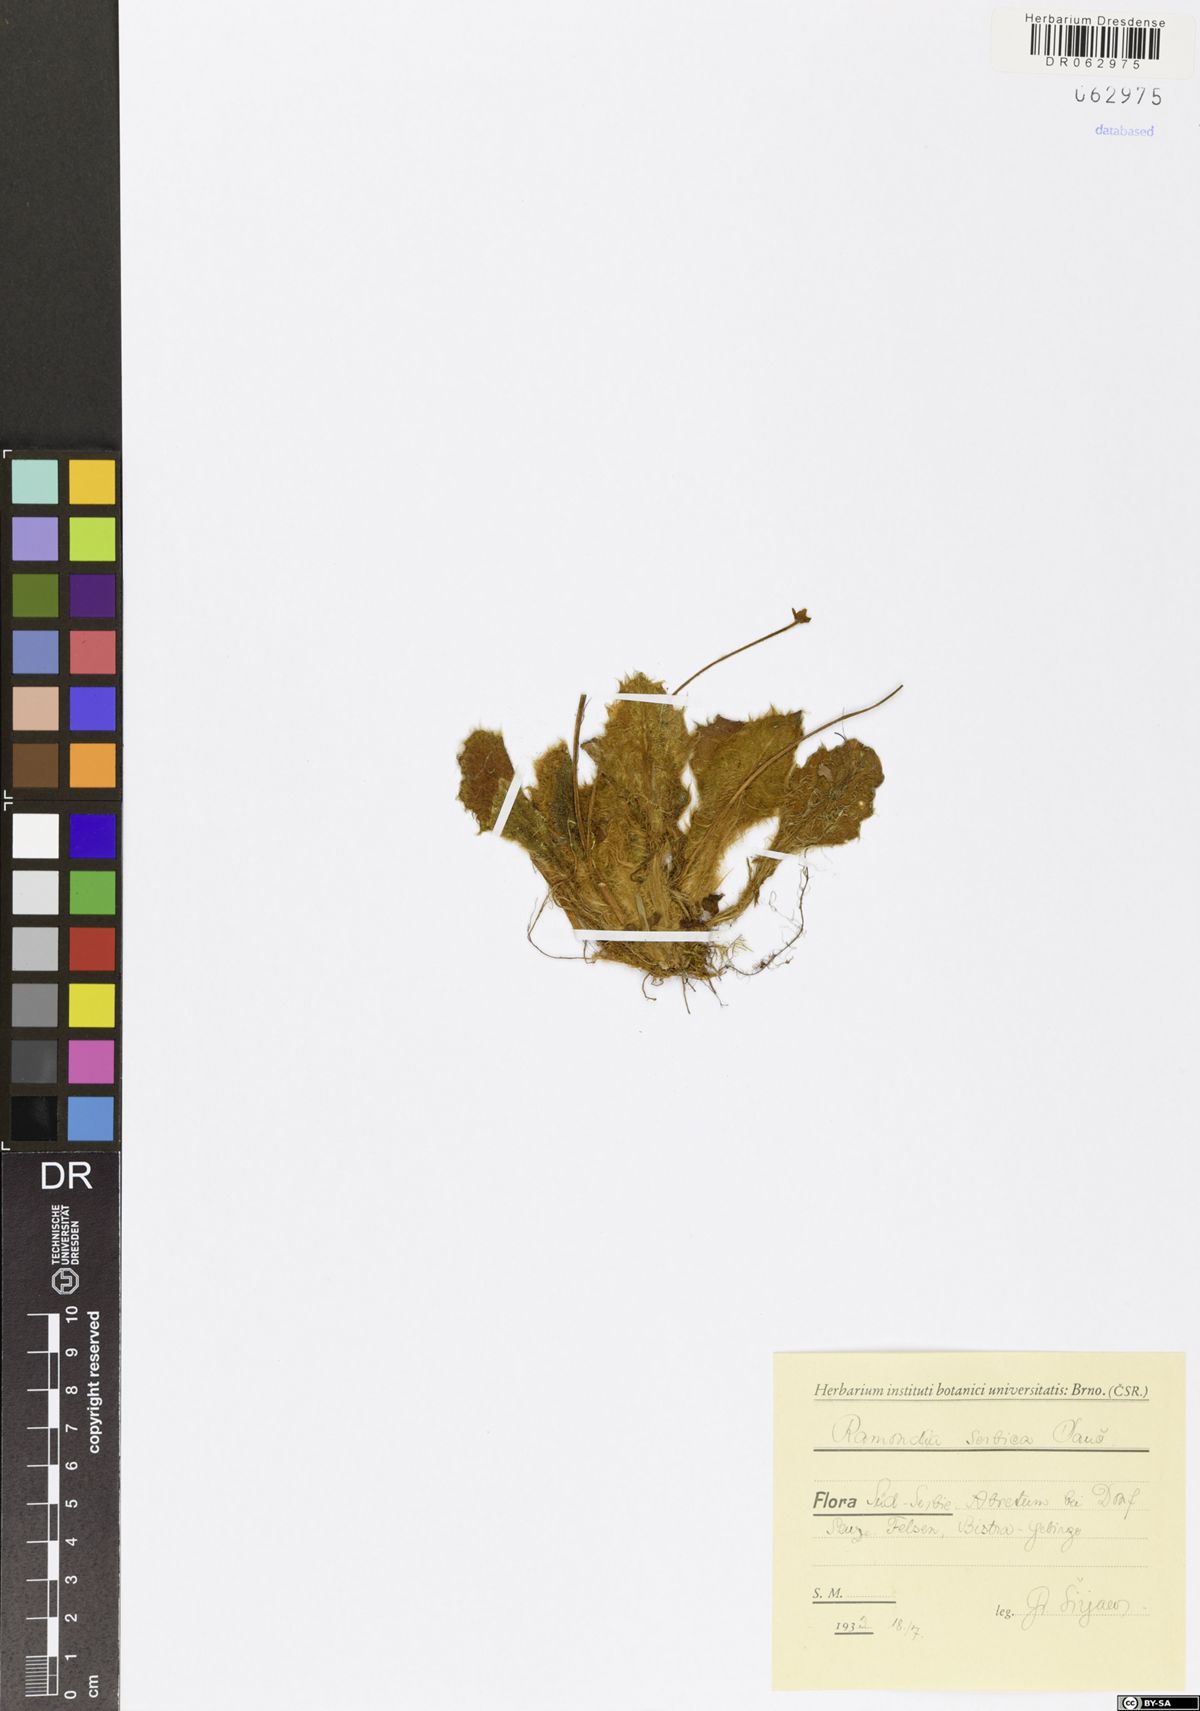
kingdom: Plantae
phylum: Tracheophyta
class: Magnoliopsida
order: Lamiales
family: Gesneriaceae
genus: Ramonda
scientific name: Ramonda serbica
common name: Serbian phoenix flower
